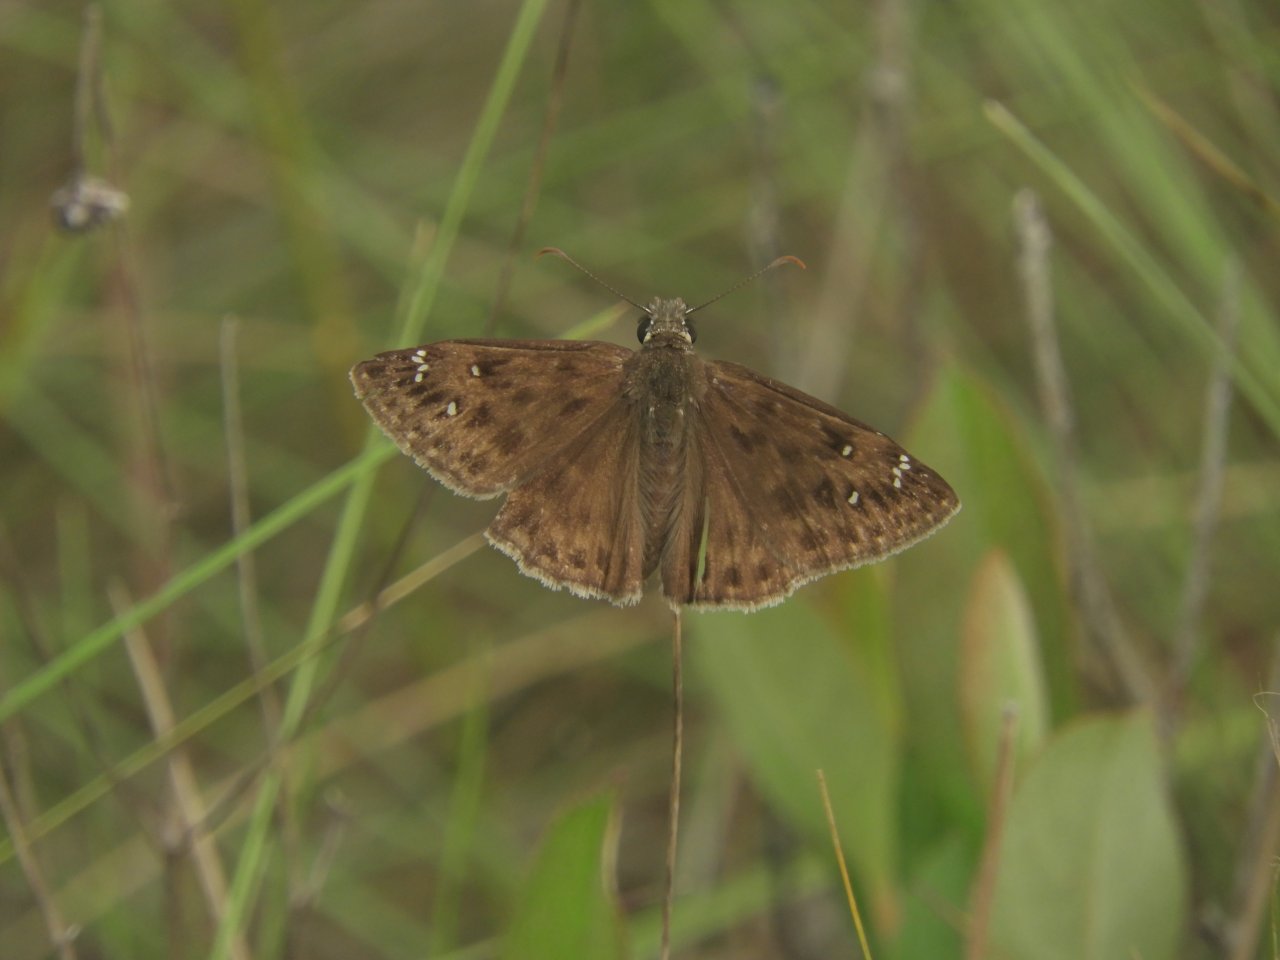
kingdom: Animalia
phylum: Arthropoda
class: Insecta
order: Lepidoptera
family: Hesperiidae
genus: Gesta
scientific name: Gesta
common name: Horace's Duskywing
